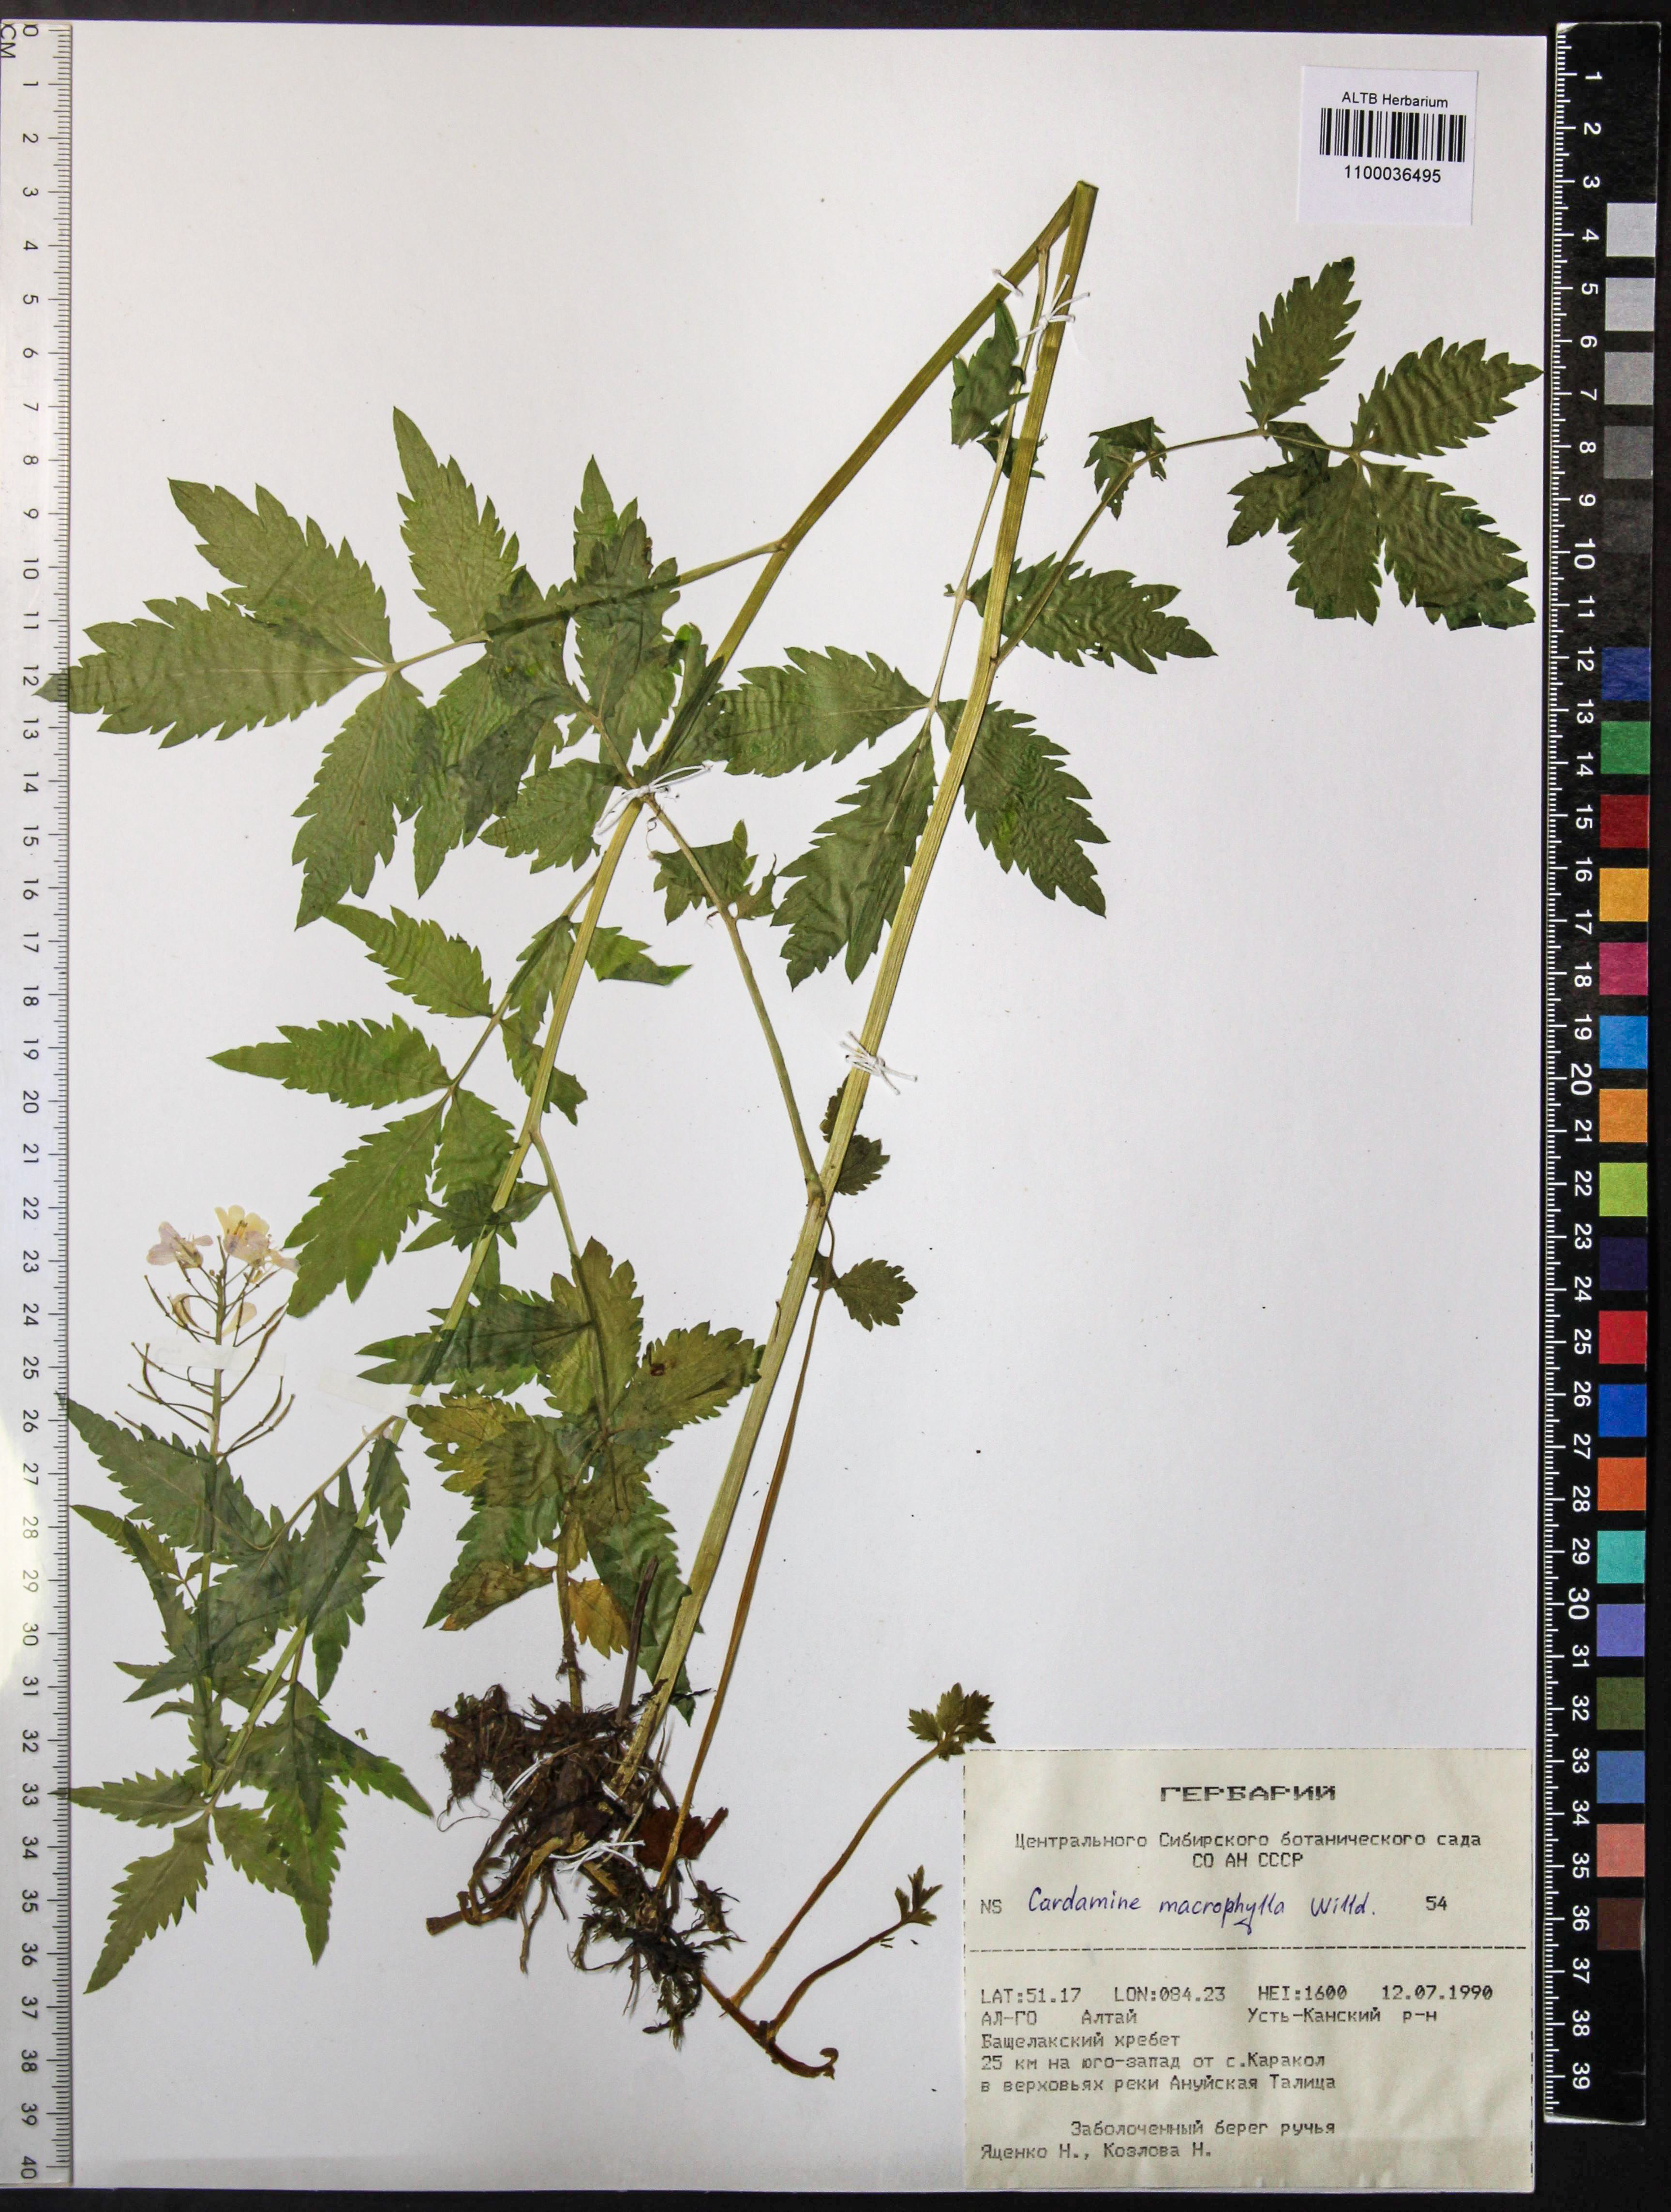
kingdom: Plantae
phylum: Tracheophyta
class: Magnoliopsida
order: Brassicales
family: Brassicaceae
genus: Cardamine
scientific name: Cardamine macrophylla
